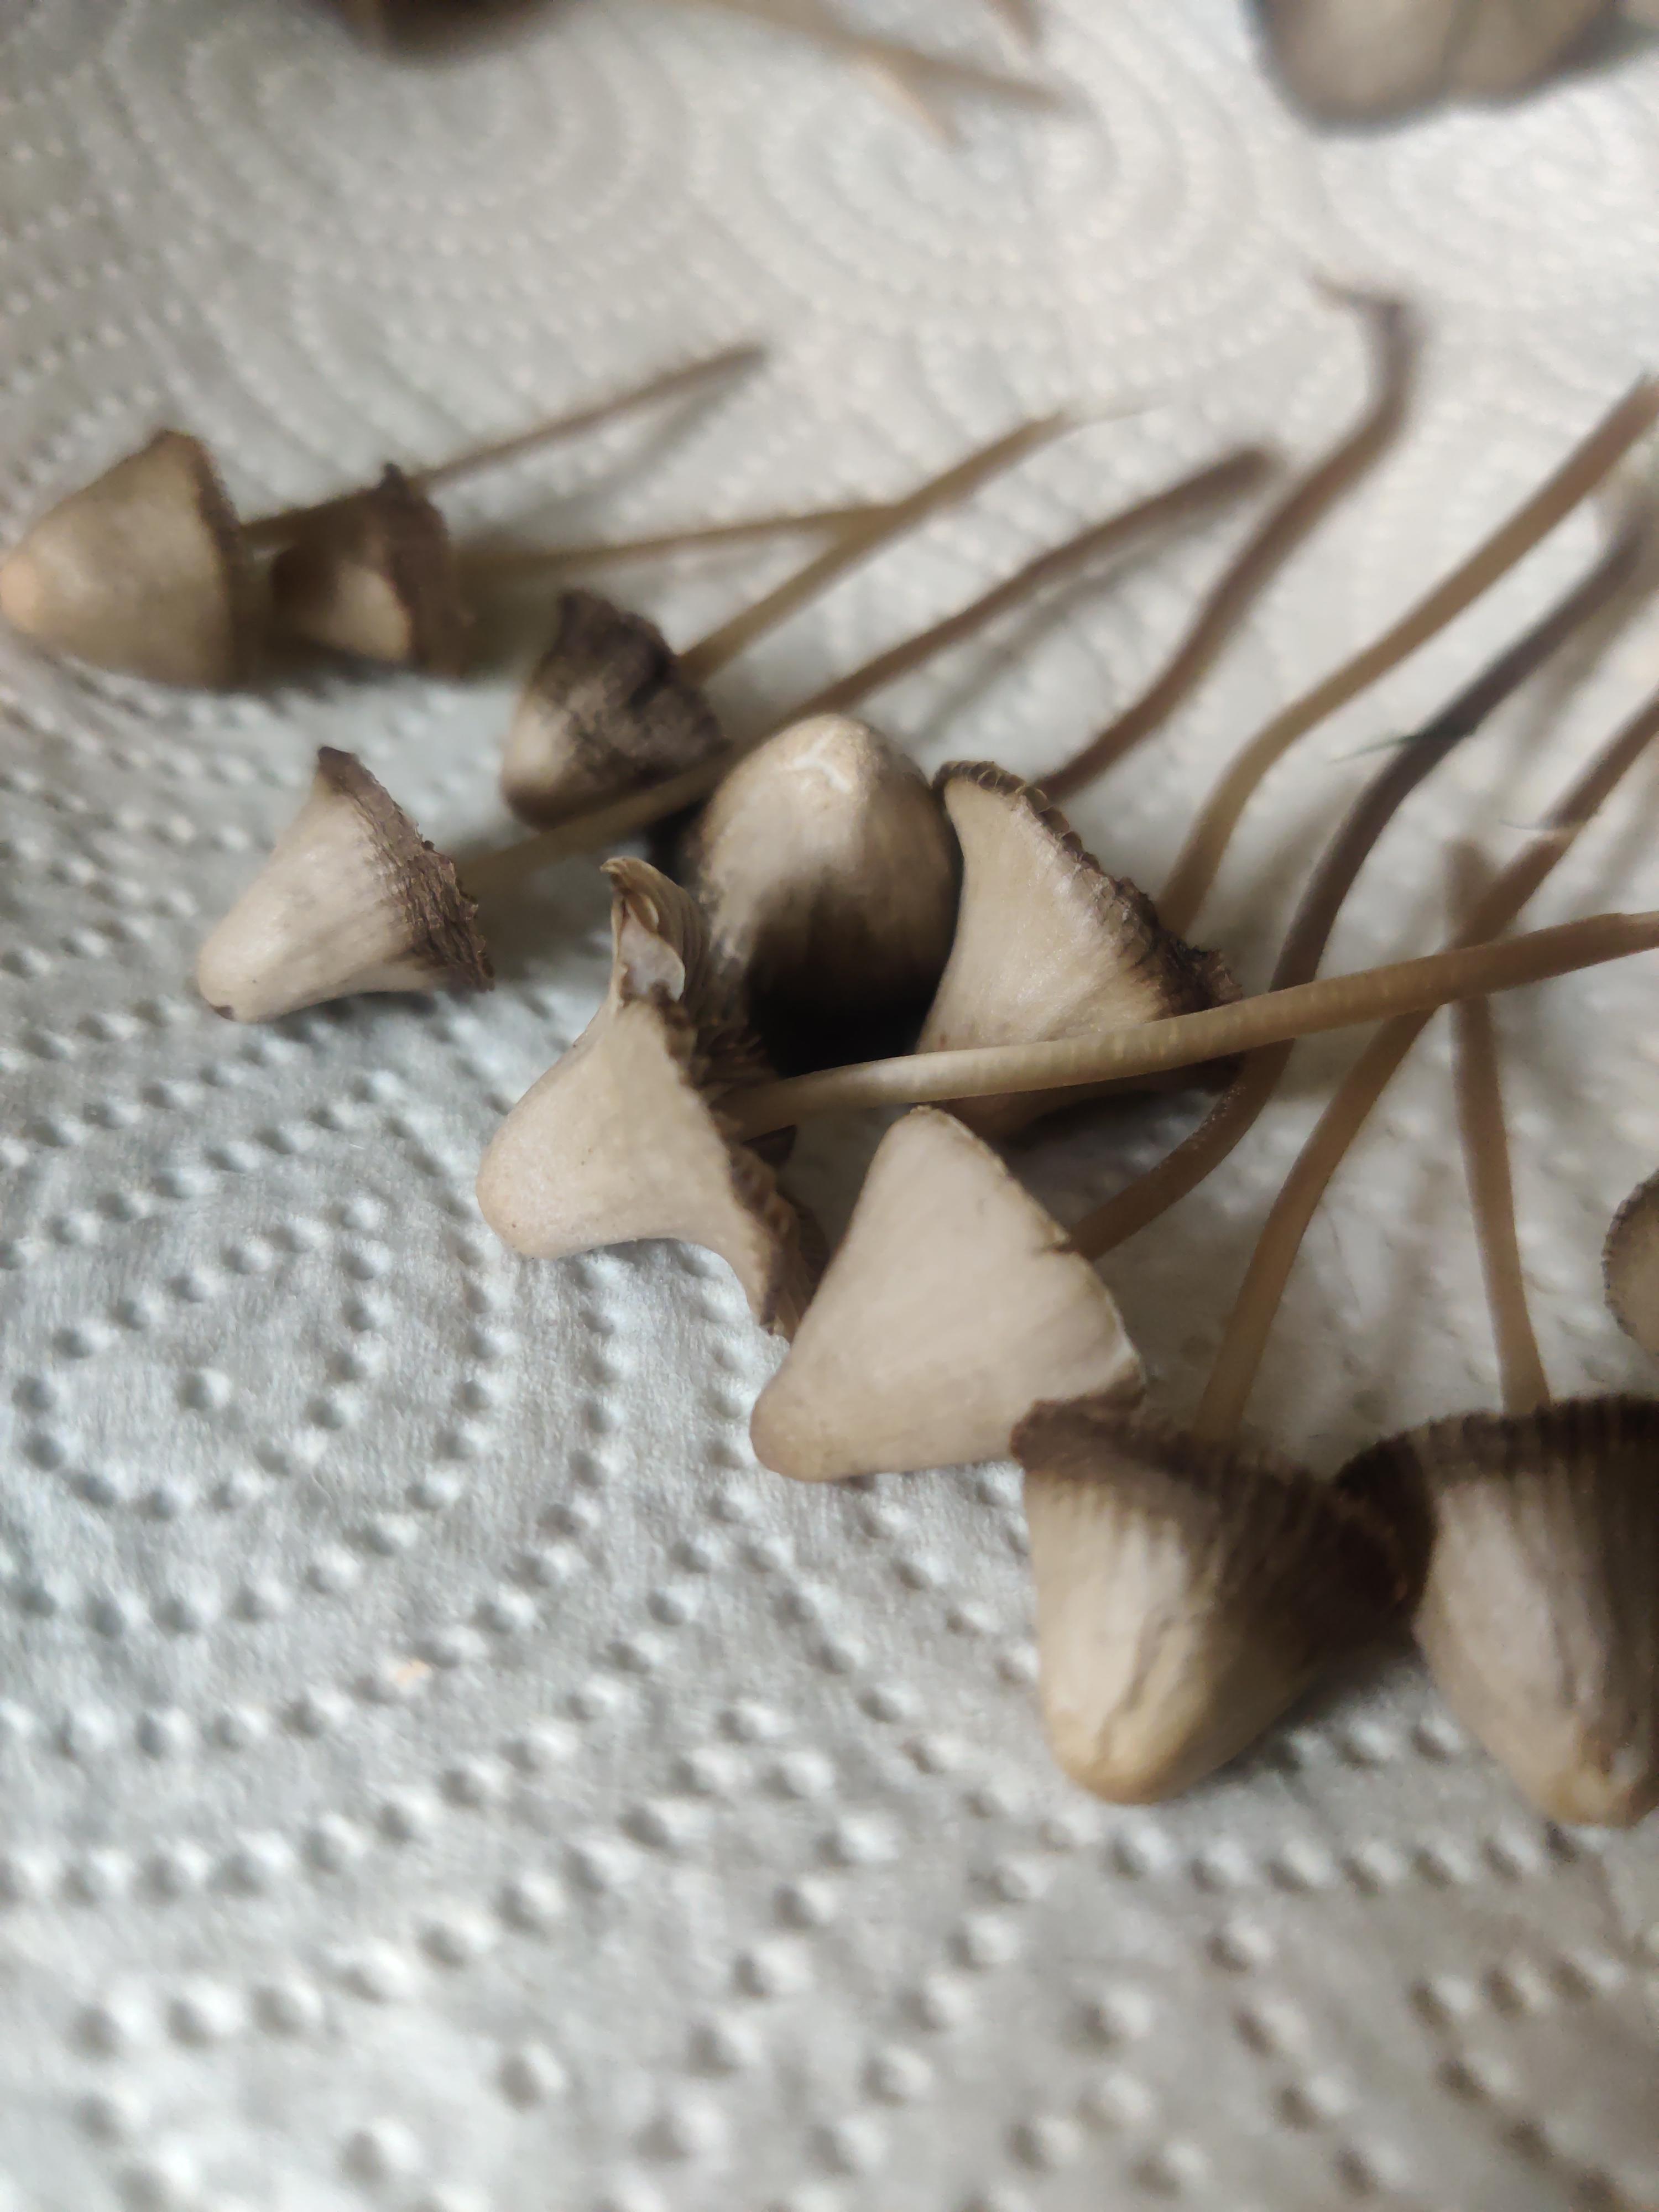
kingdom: Fungi
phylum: Basidiomycota
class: Agaricomycetes
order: Agaricales
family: Mycenaceae
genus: Mycena
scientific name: Mycena aetites
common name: plæne-huesvamp
